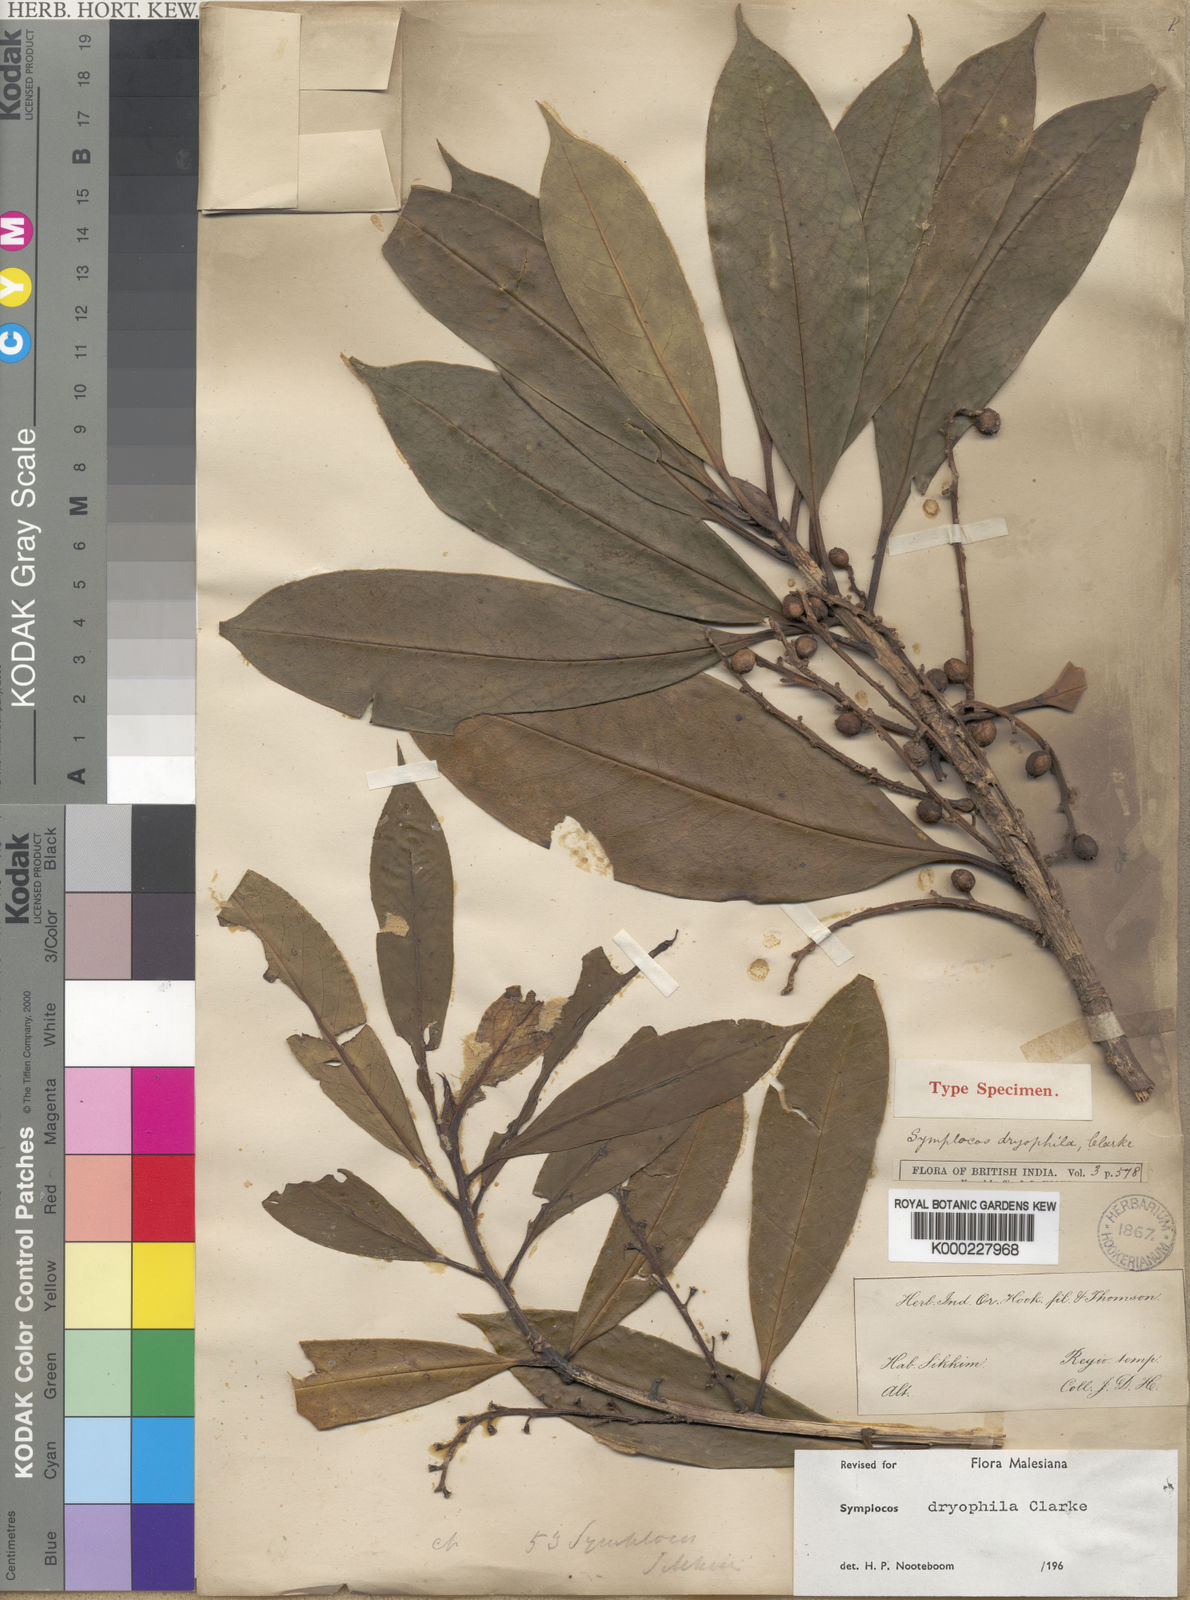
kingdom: Plantae
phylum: Tracheophyta
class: Magnoliopsida
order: Ericales
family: Symplocaceae
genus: Symplocos
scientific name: Symplocos dryophila
